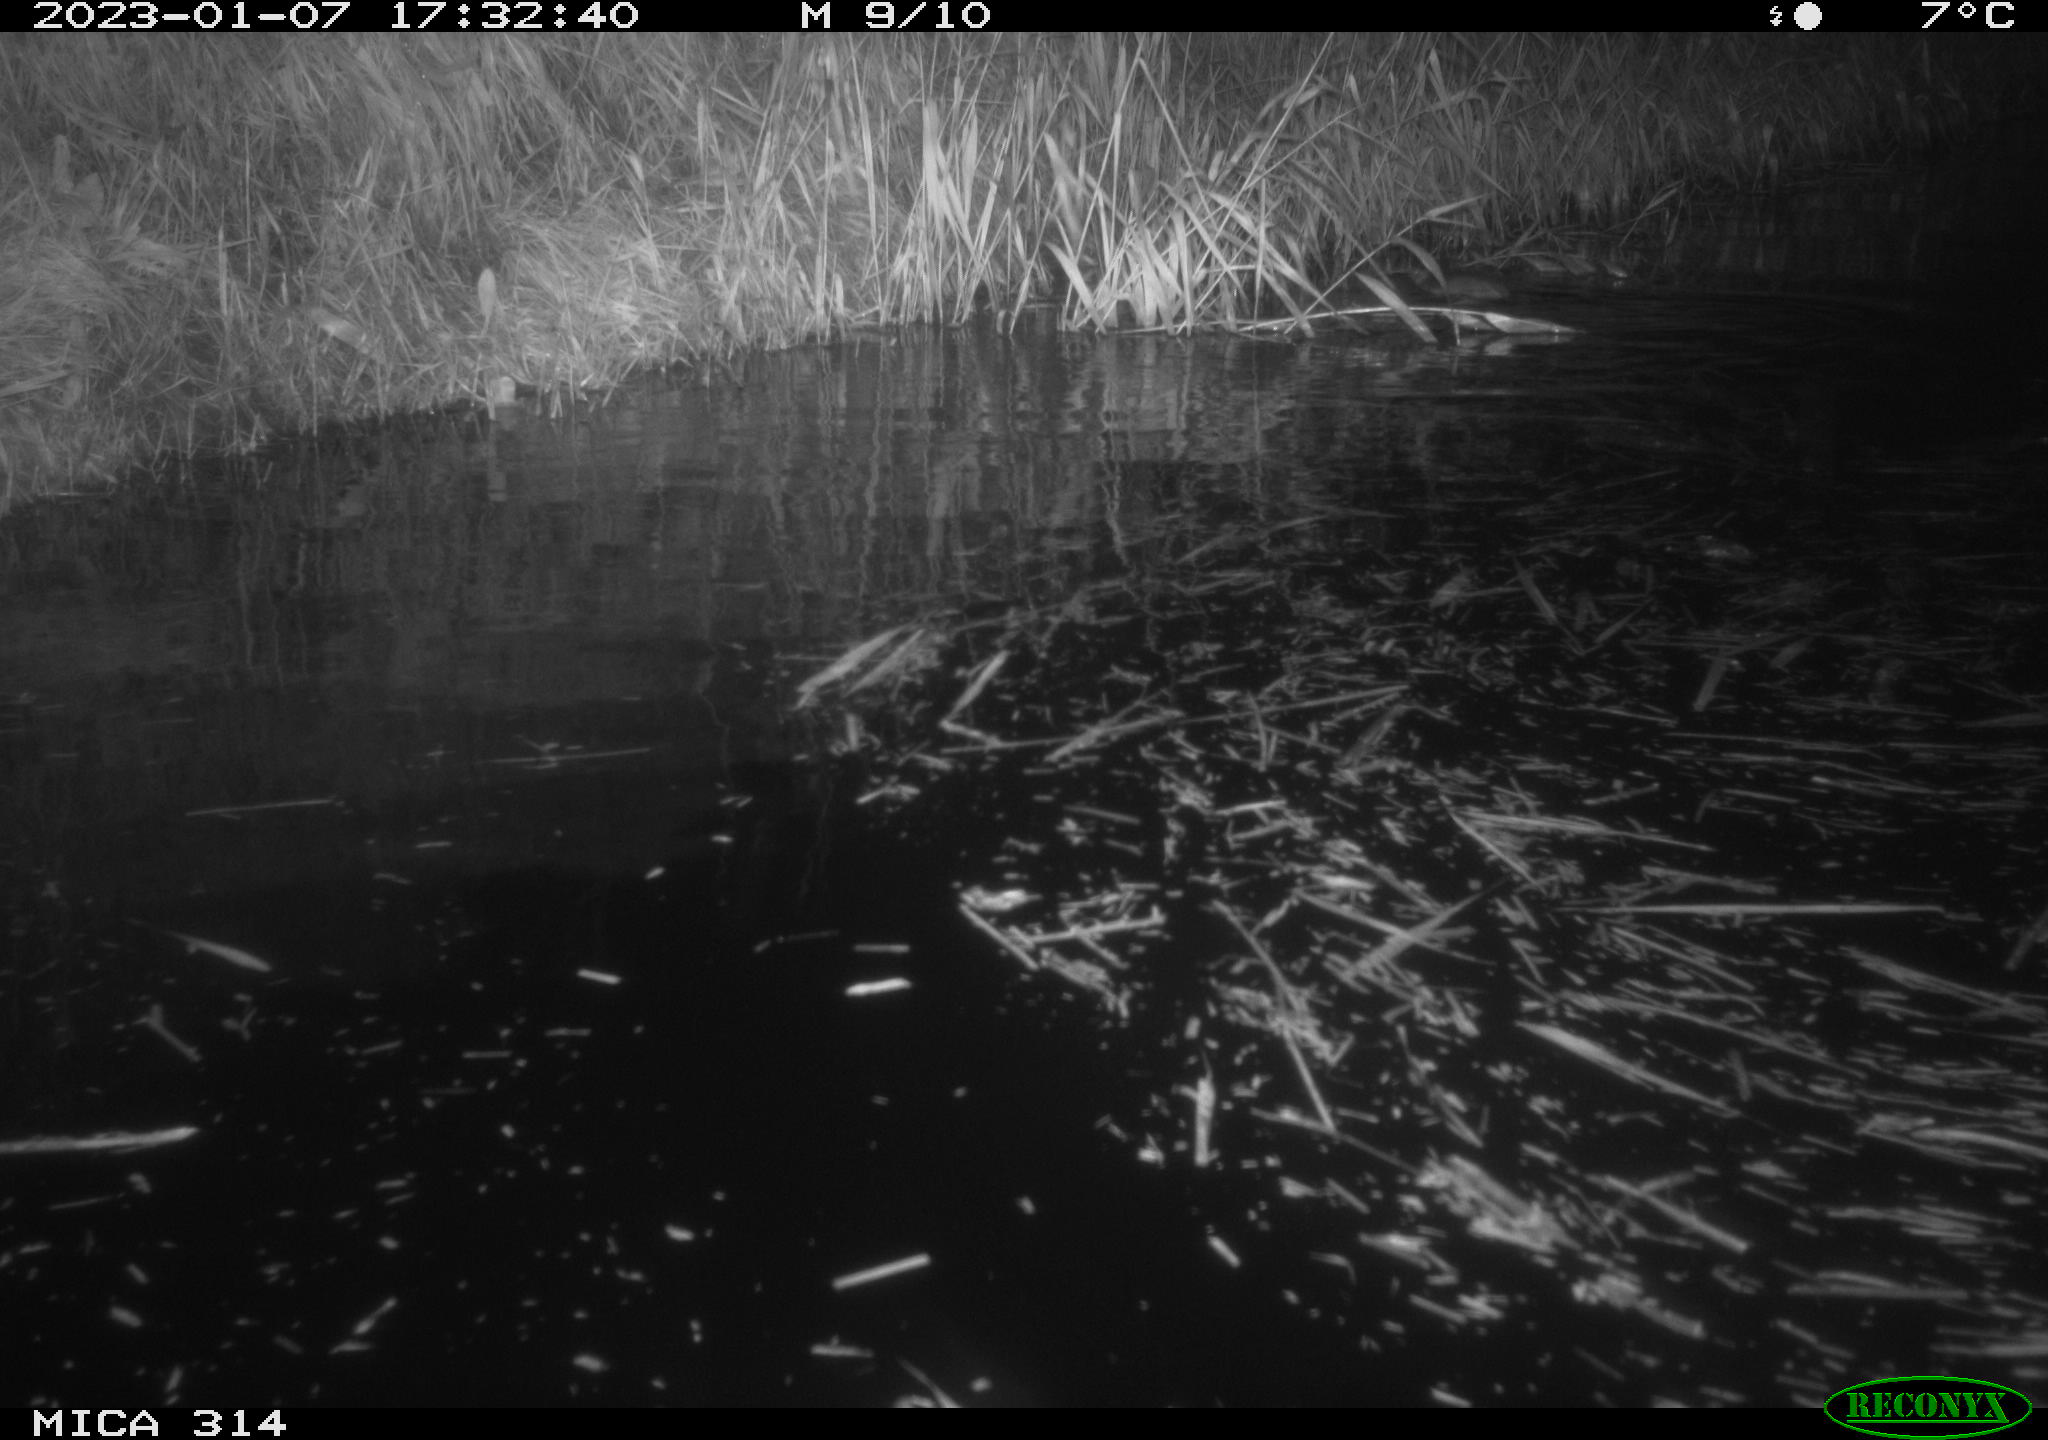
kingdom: Animalia
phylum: Chordata
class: Mammalia
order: Rodentia
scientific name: Rodentia
